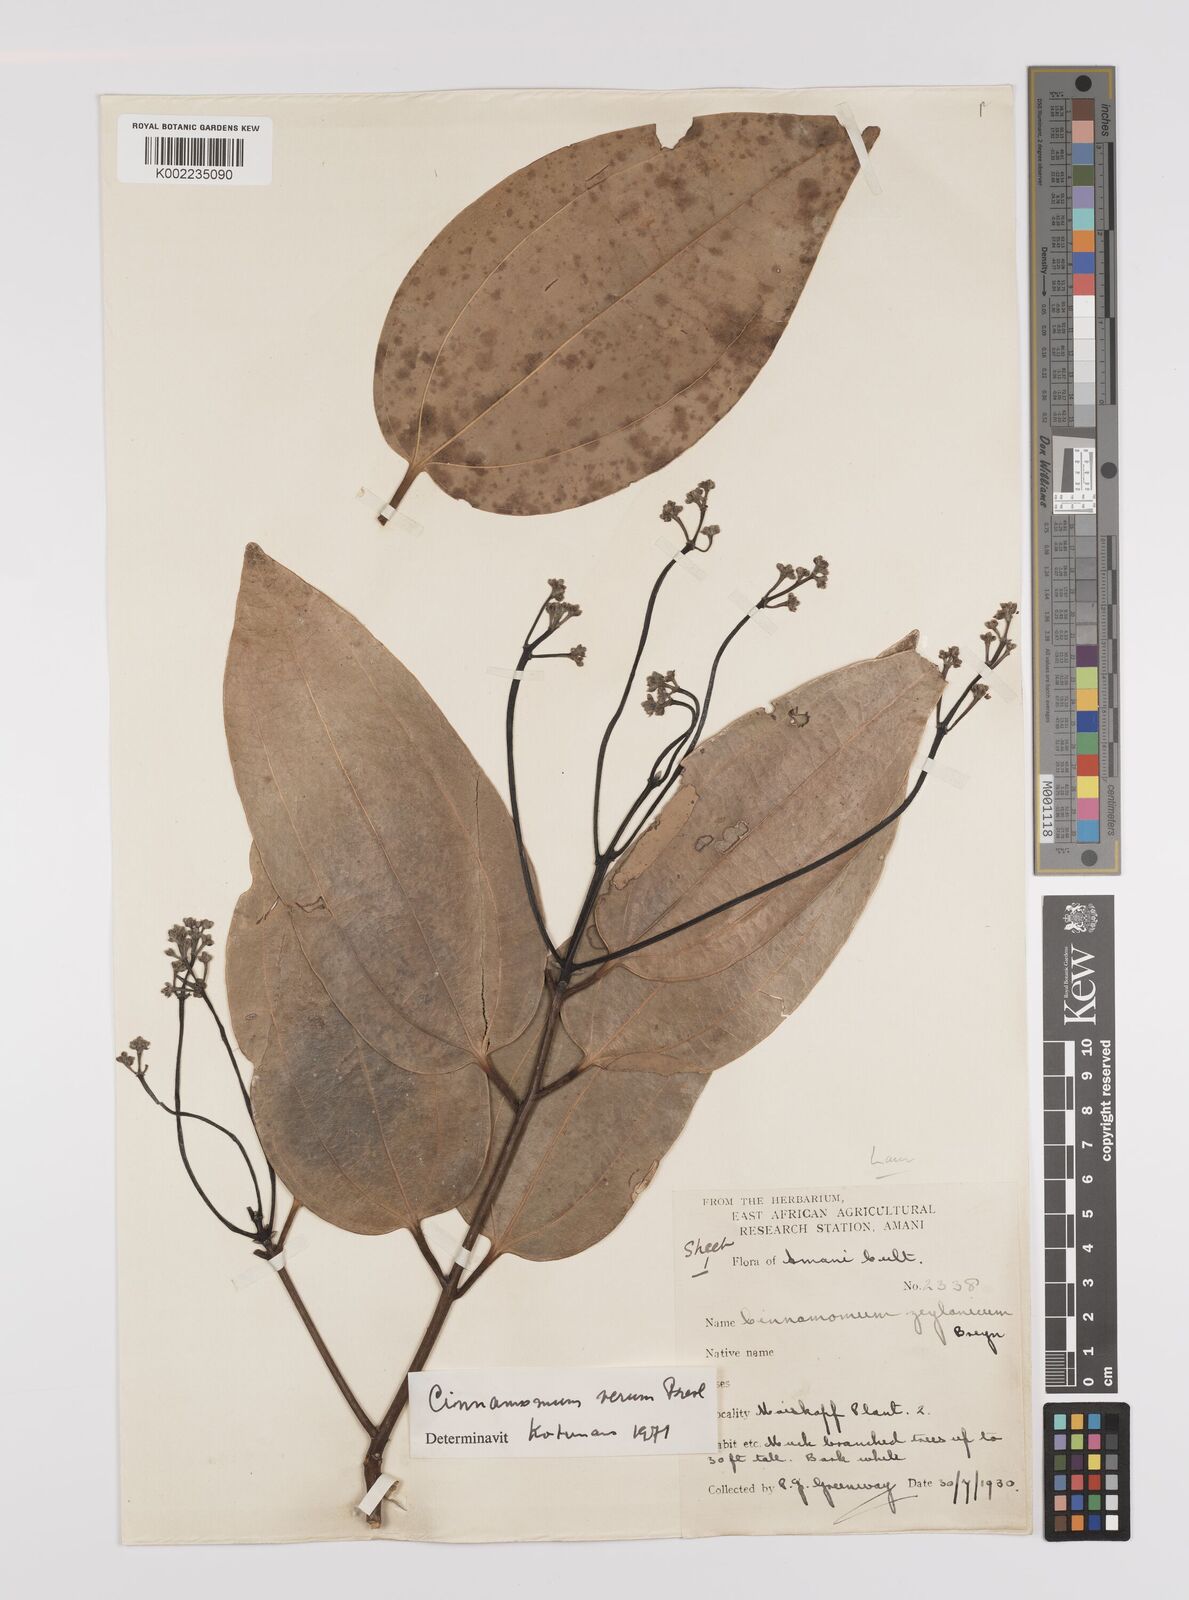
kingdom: Plantae
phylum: Tracheophyta
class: Magnoliopsida
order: Laurales
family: Lauraceae
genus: Cinnamomum
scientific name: Cinnamomum verum
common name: Cinnamon
